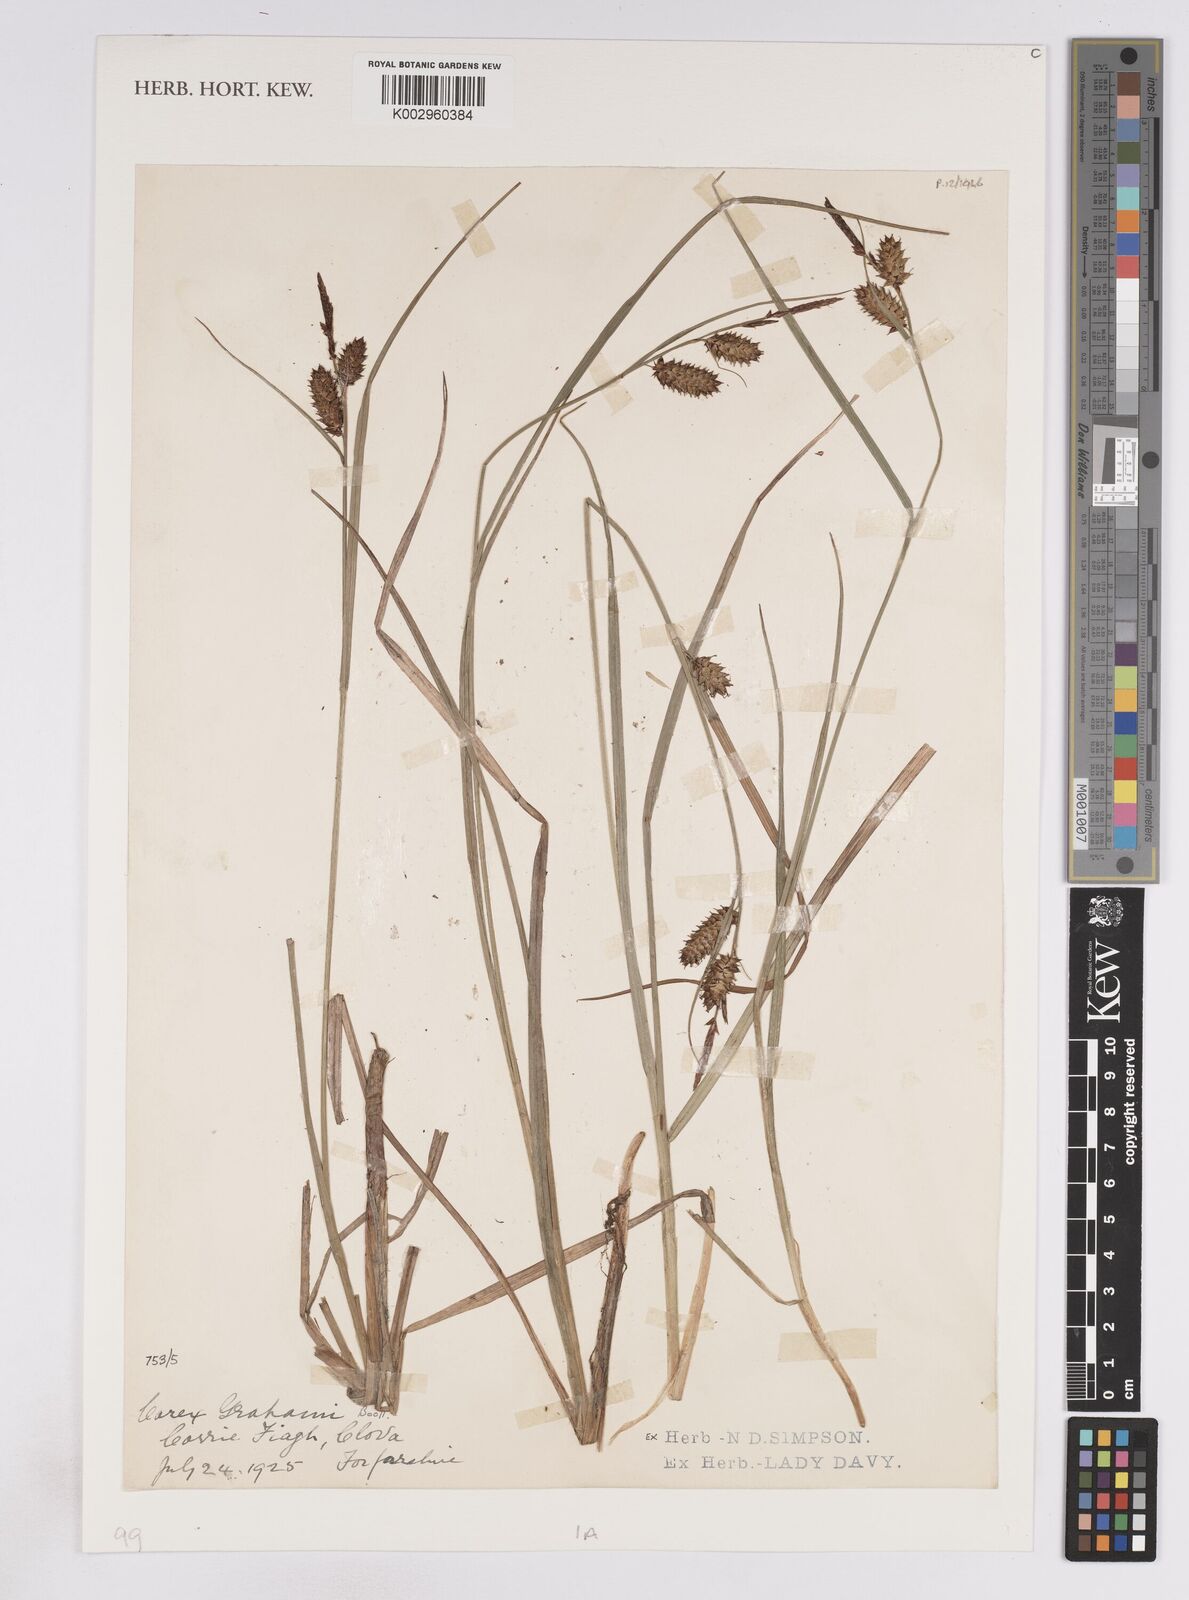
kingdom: Plantae
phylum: Tracheophyta
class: Liliopsida
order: Poales
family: Cyperaceae
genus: Carex
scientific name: Carex rostrata
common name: Bottle sedge
